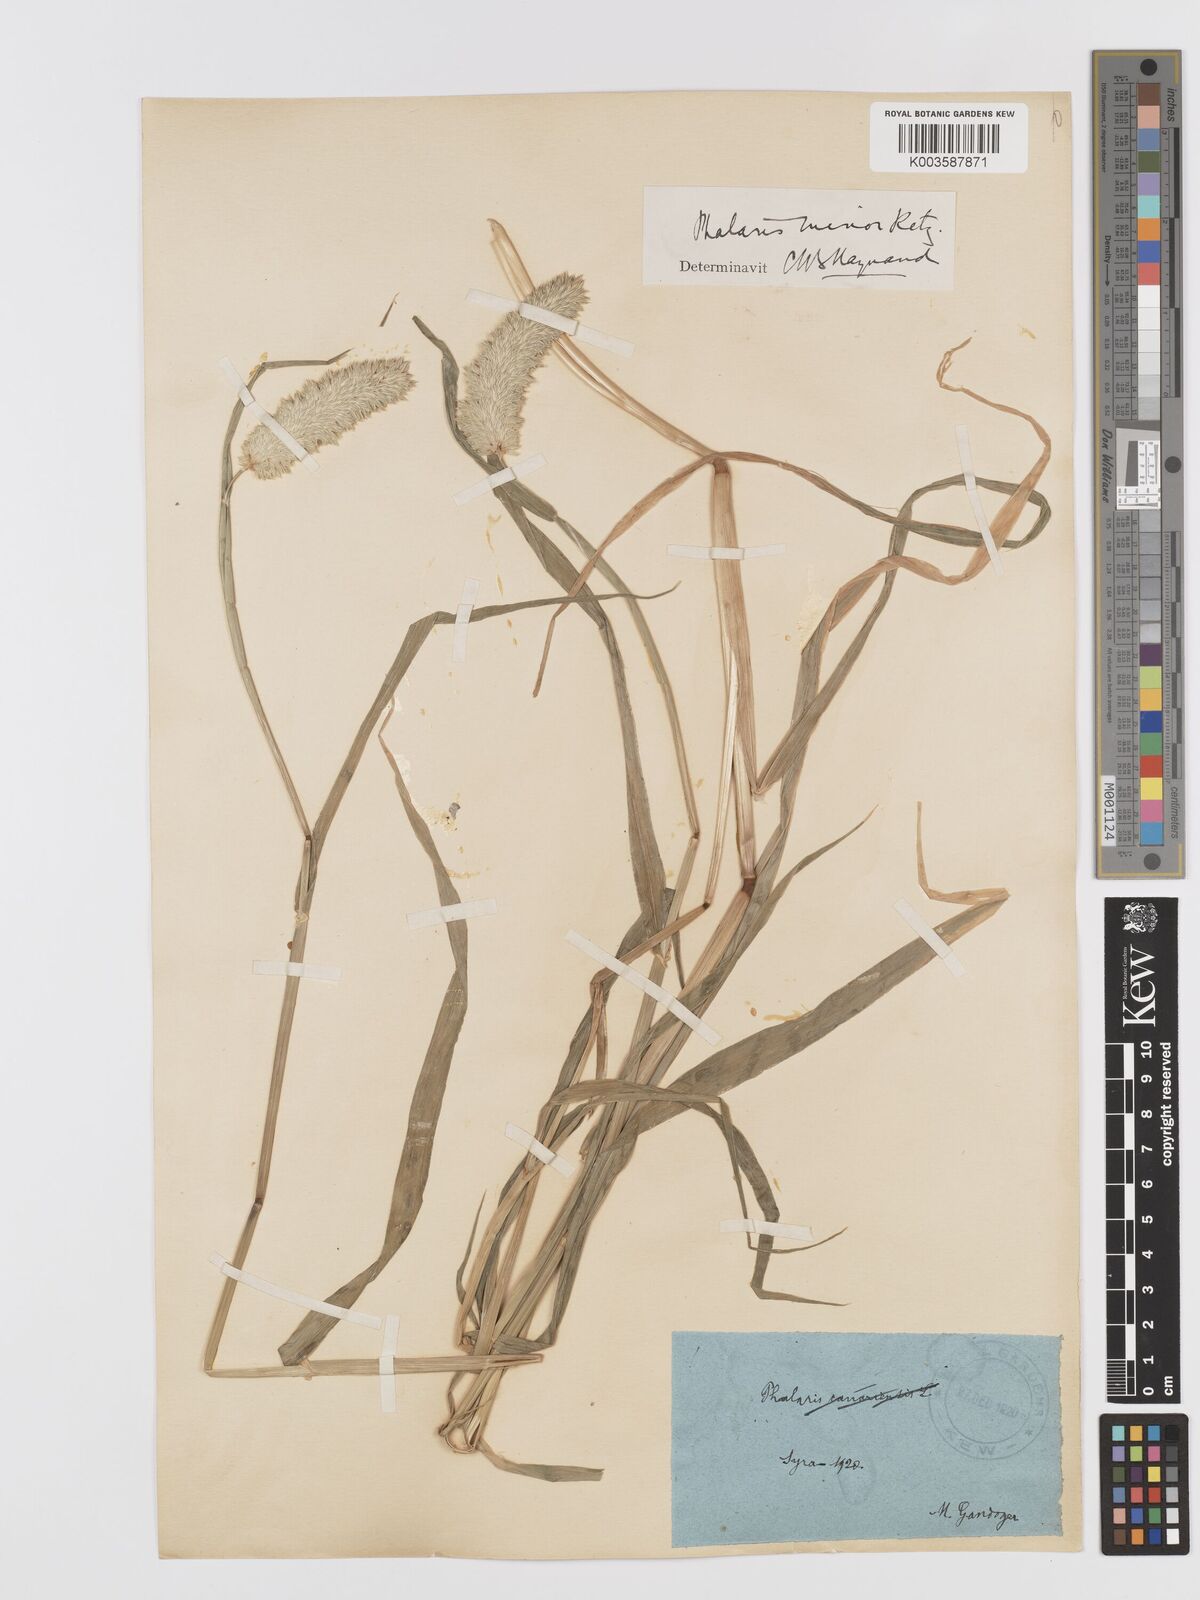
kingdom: Plantae
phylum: Tracheophyta
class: Liliopsida
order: Poales
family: Poaceae
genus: Phalaris
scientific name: Phalaris minor
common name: Littleseed canarygrass
